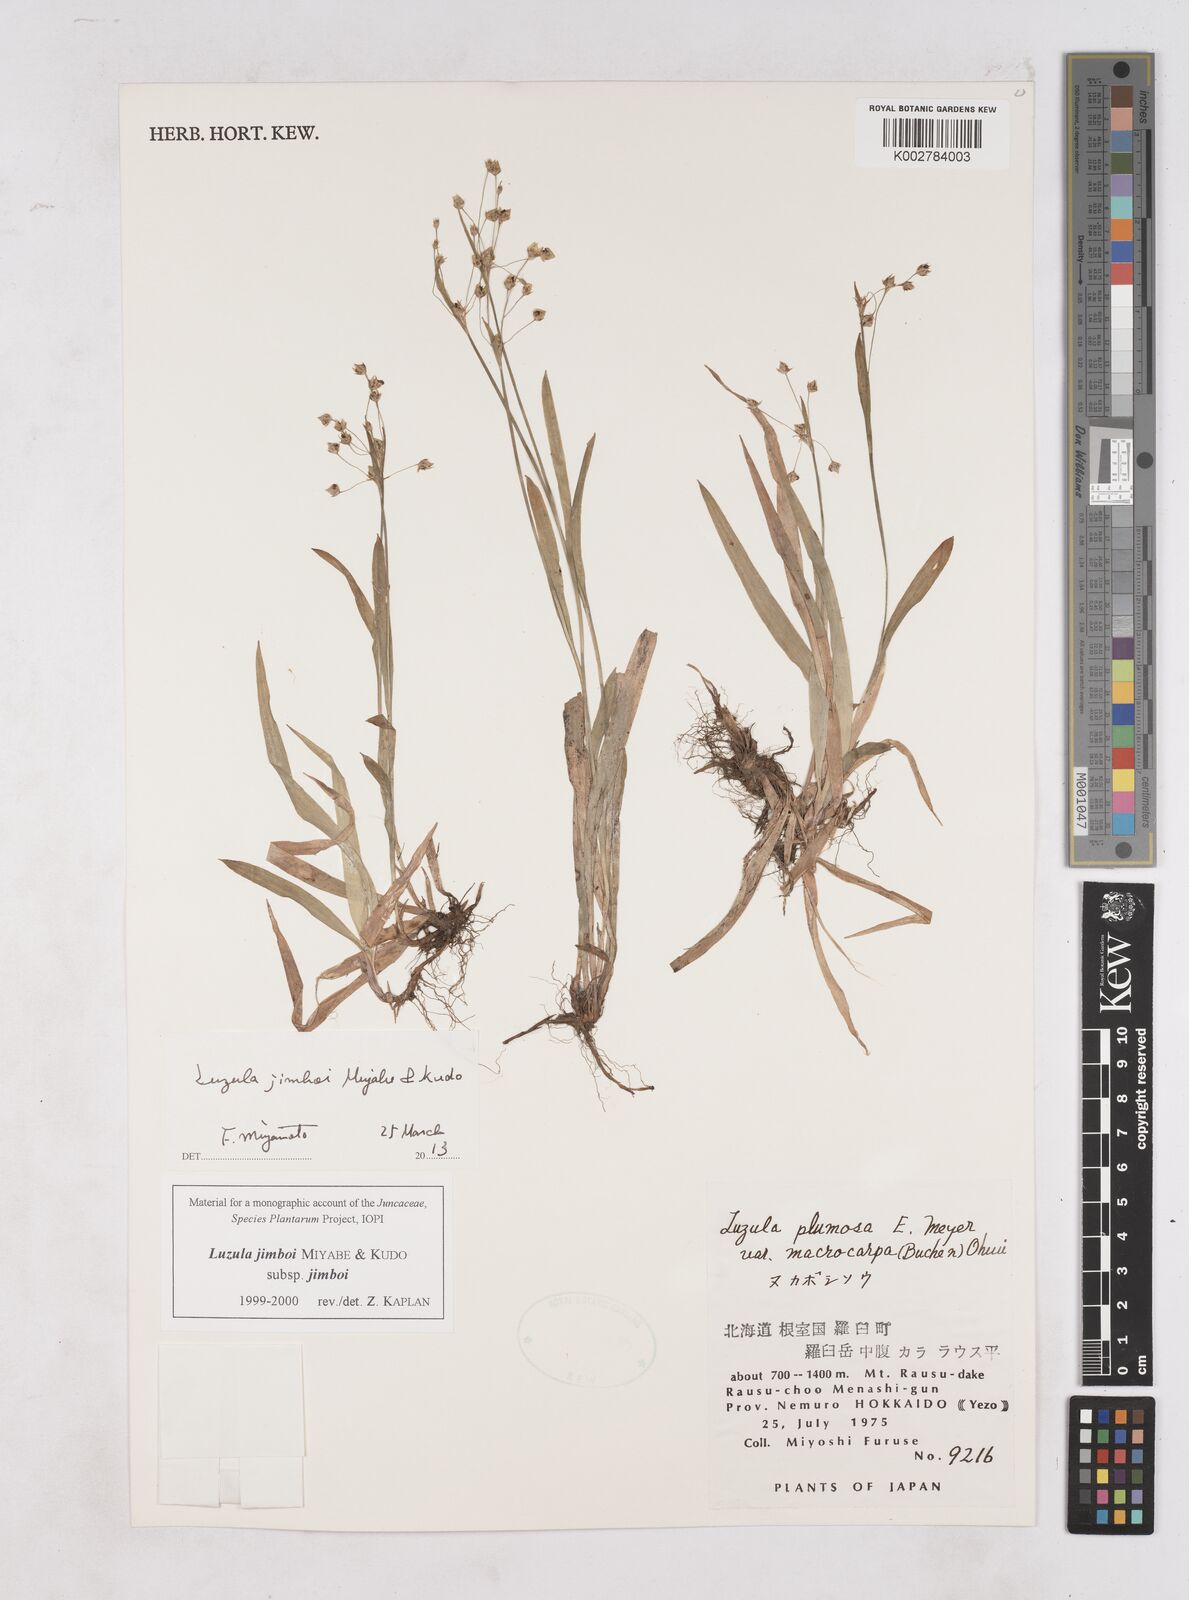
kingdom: Plantae
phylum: Tracheophyta
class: Liliopsida
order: Poales
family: Juncaceae
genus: Luzula
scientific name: Luzula jimboi
